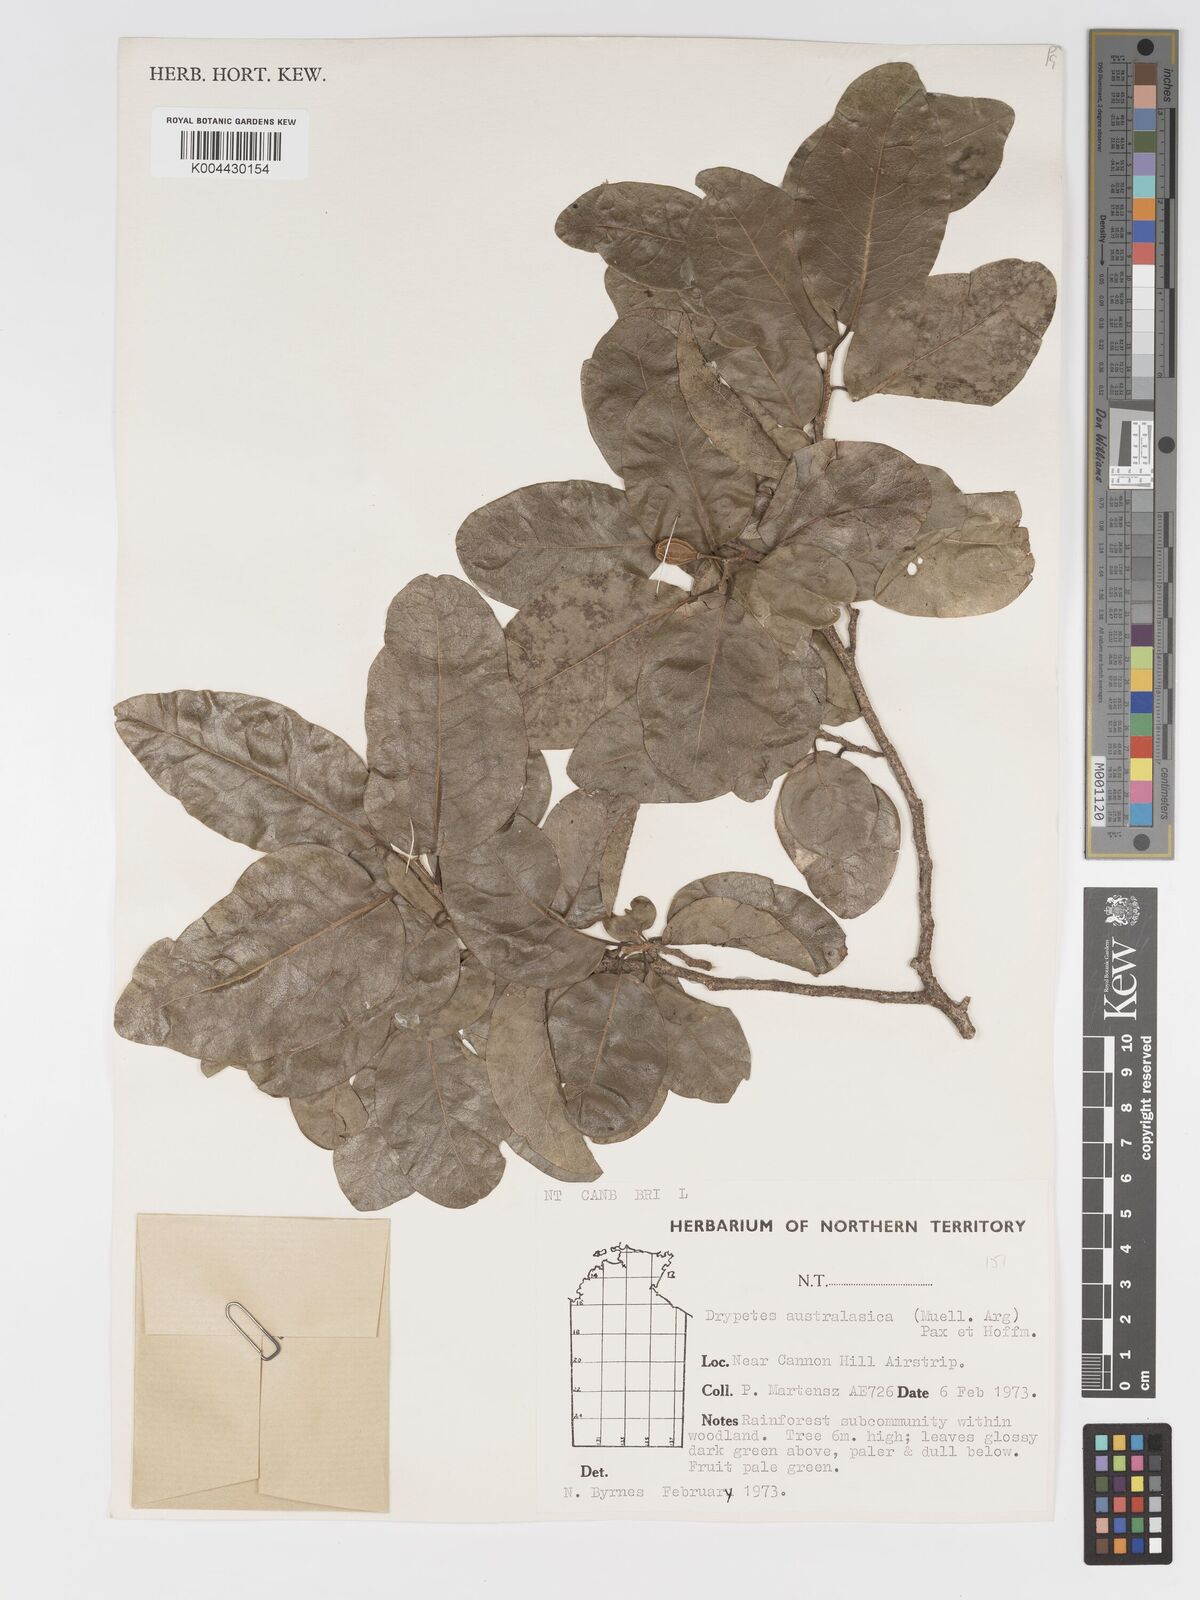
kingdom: Plantae
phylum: Tracheophyta
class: Magnoliopsida
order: Malpighiales
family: Putranjivaceae
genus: Drypetes
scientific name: Drypetes deplanchei
